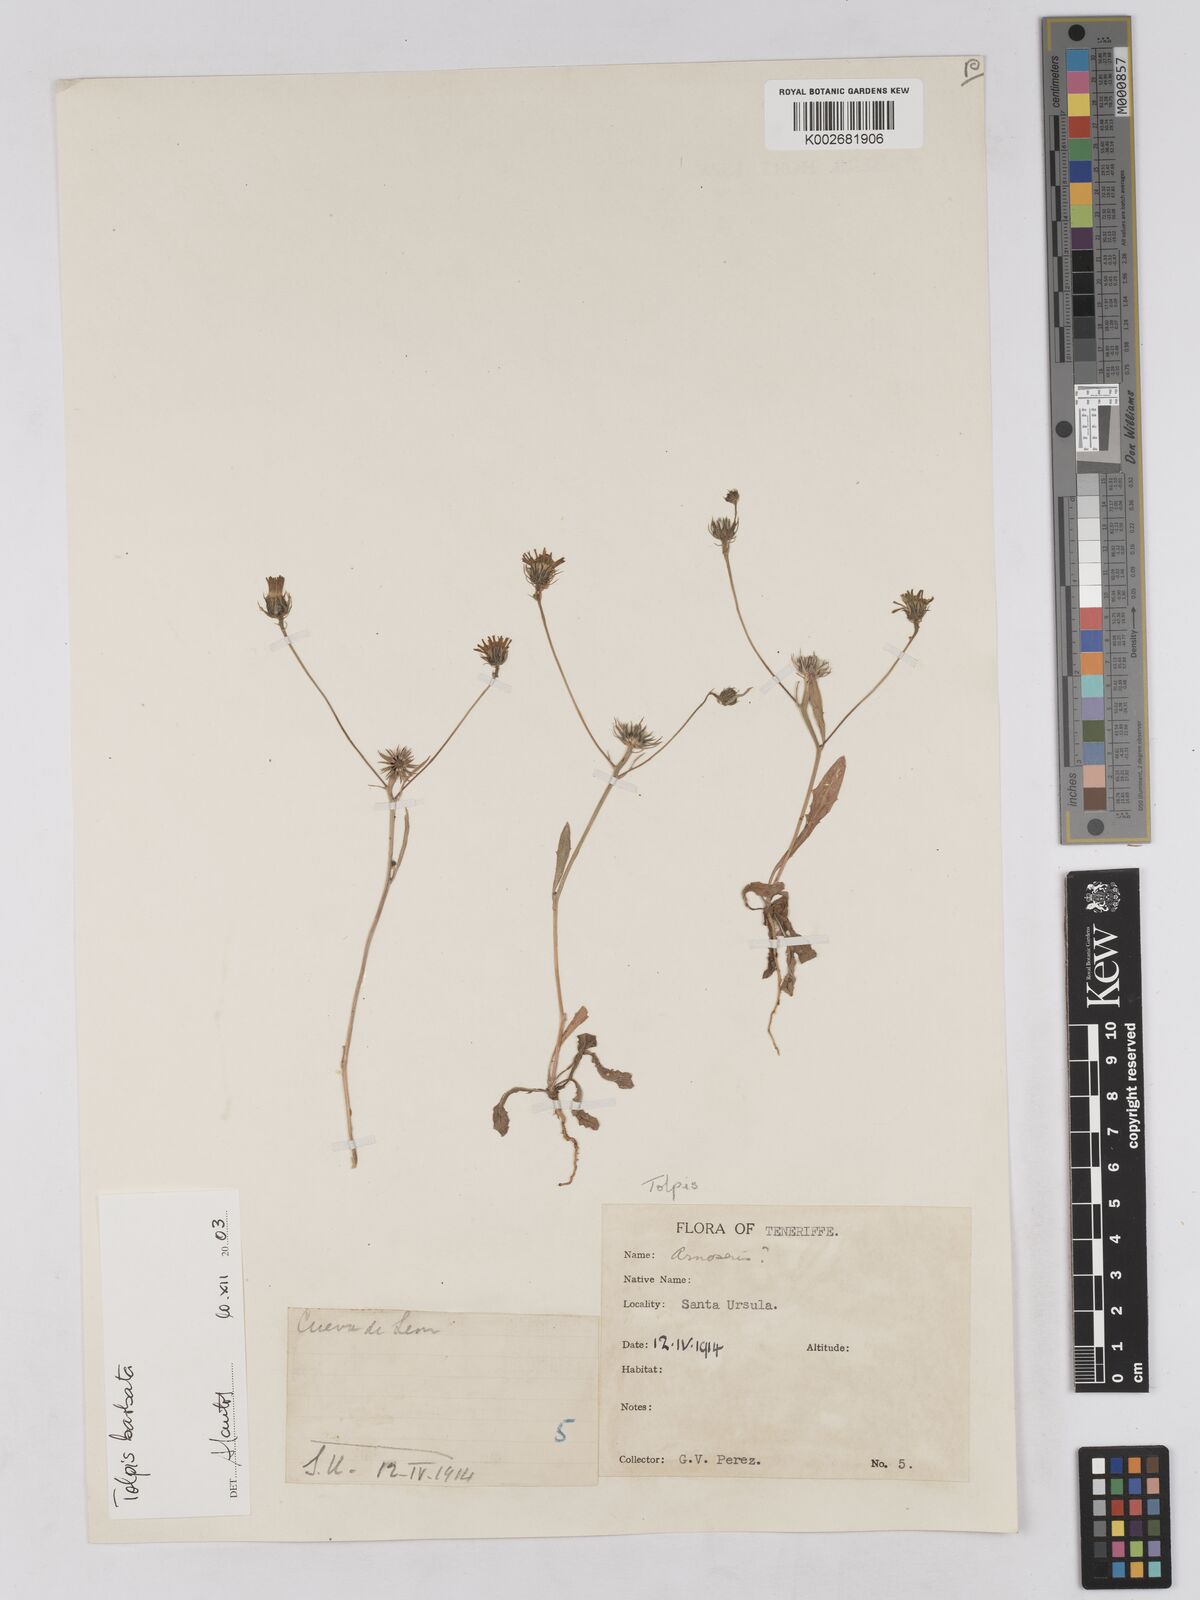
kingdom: Plantae
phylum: Tracheophyta
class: Magnoliopsida
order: Asterales
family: Asteraceae
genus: Tolpis
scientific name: Tolpis
